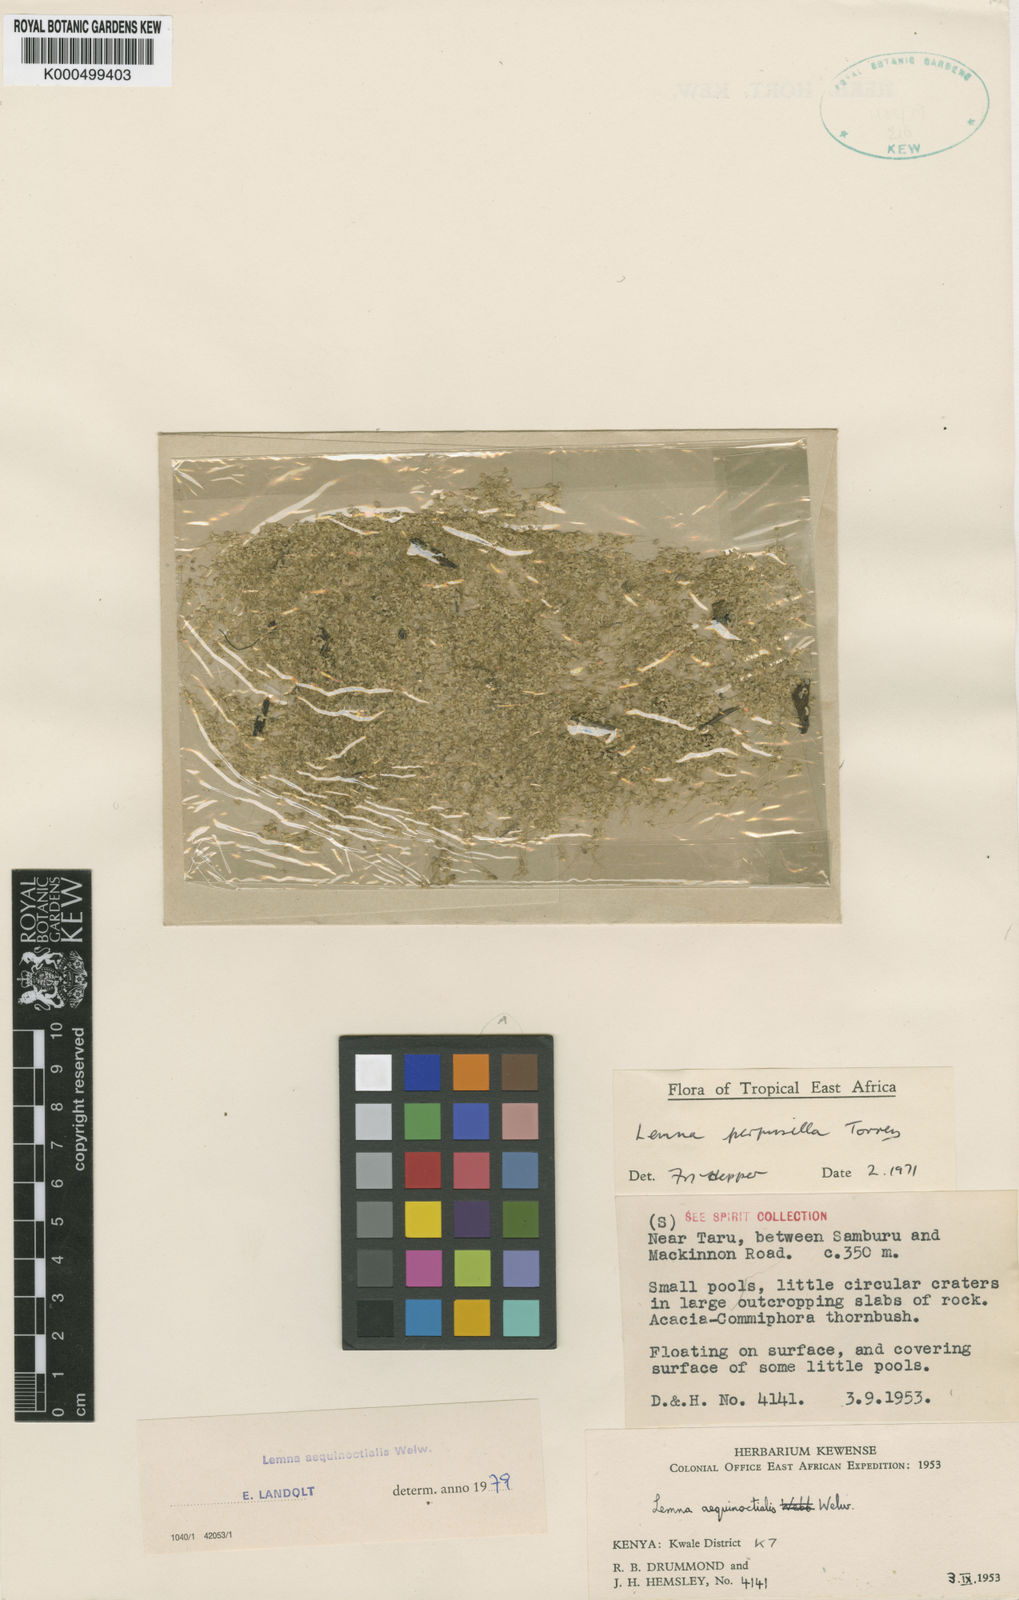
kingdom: Plantae
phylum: Tracheophyta
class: Liliopsida
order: Alismatales
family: Araceae
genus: Lemna
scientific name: Lemna
